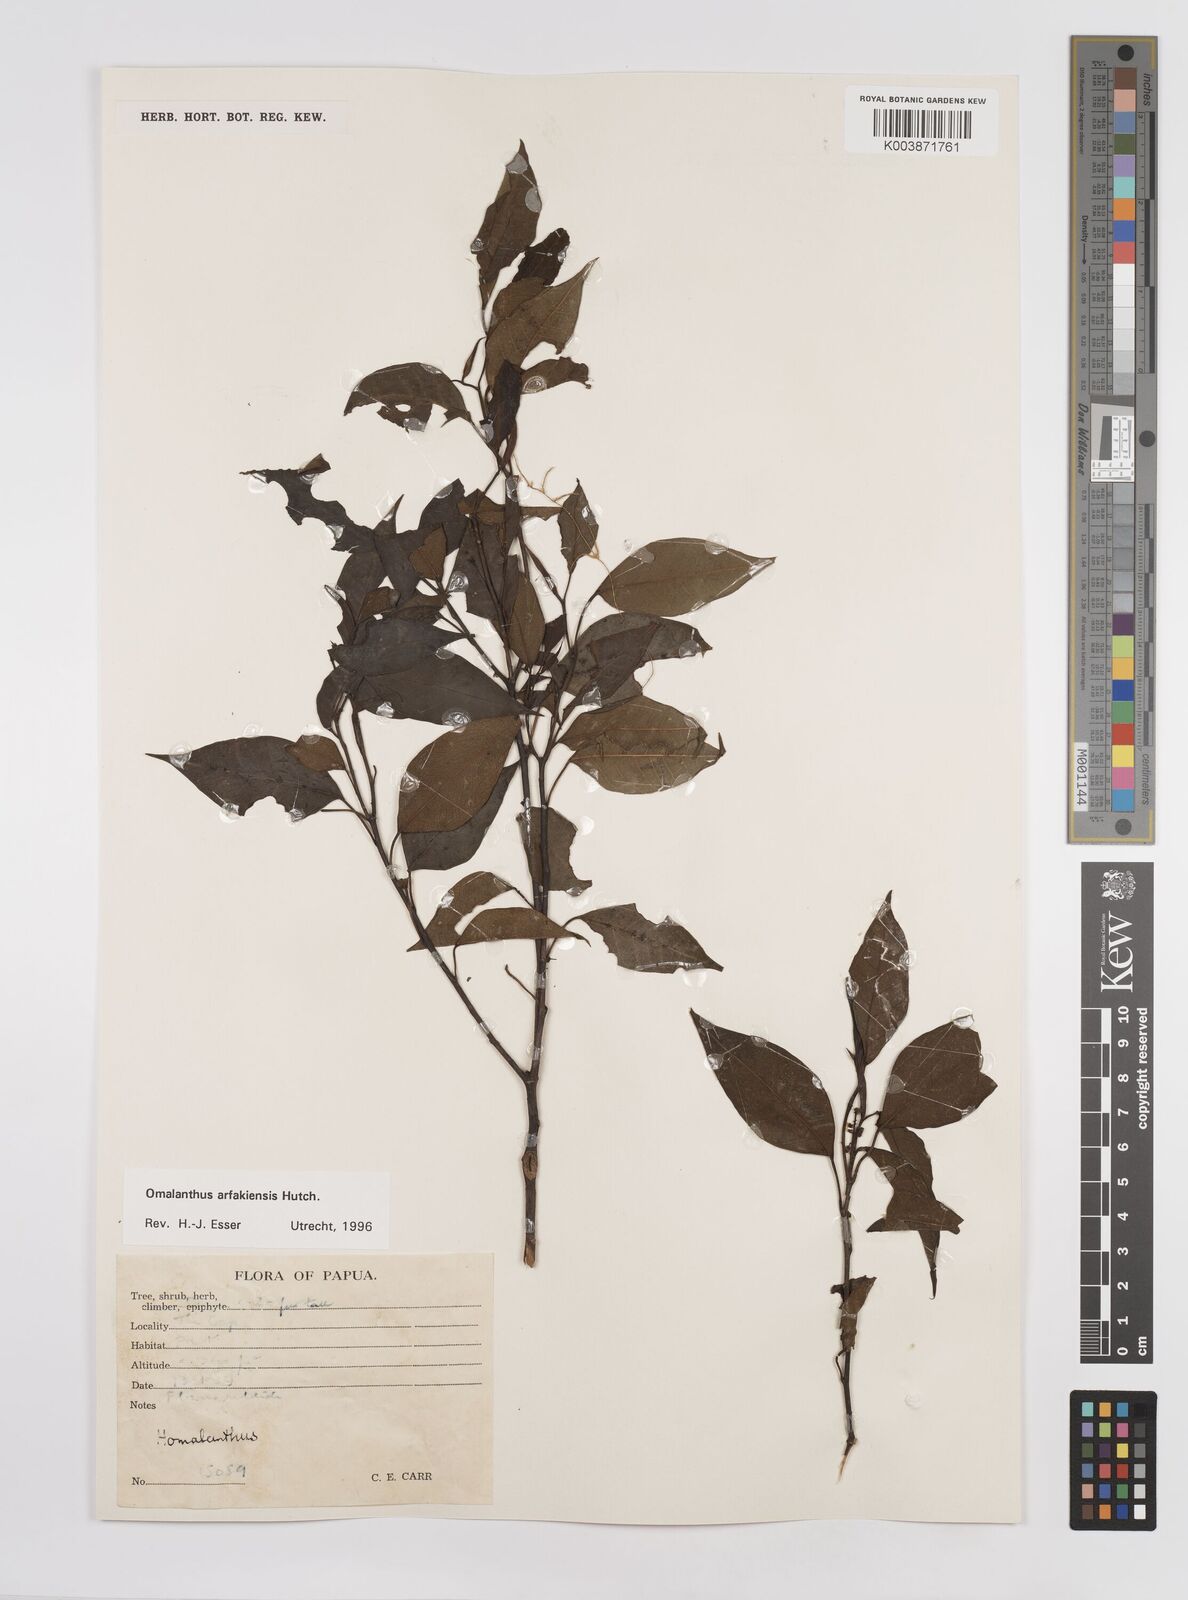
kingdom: Plantae
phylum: Tracheophyta
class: Magnoliopsida
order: Malpighiales
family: Euphorbiaceae
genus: Homalanthus
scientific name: Homalanthus arfakiensis
